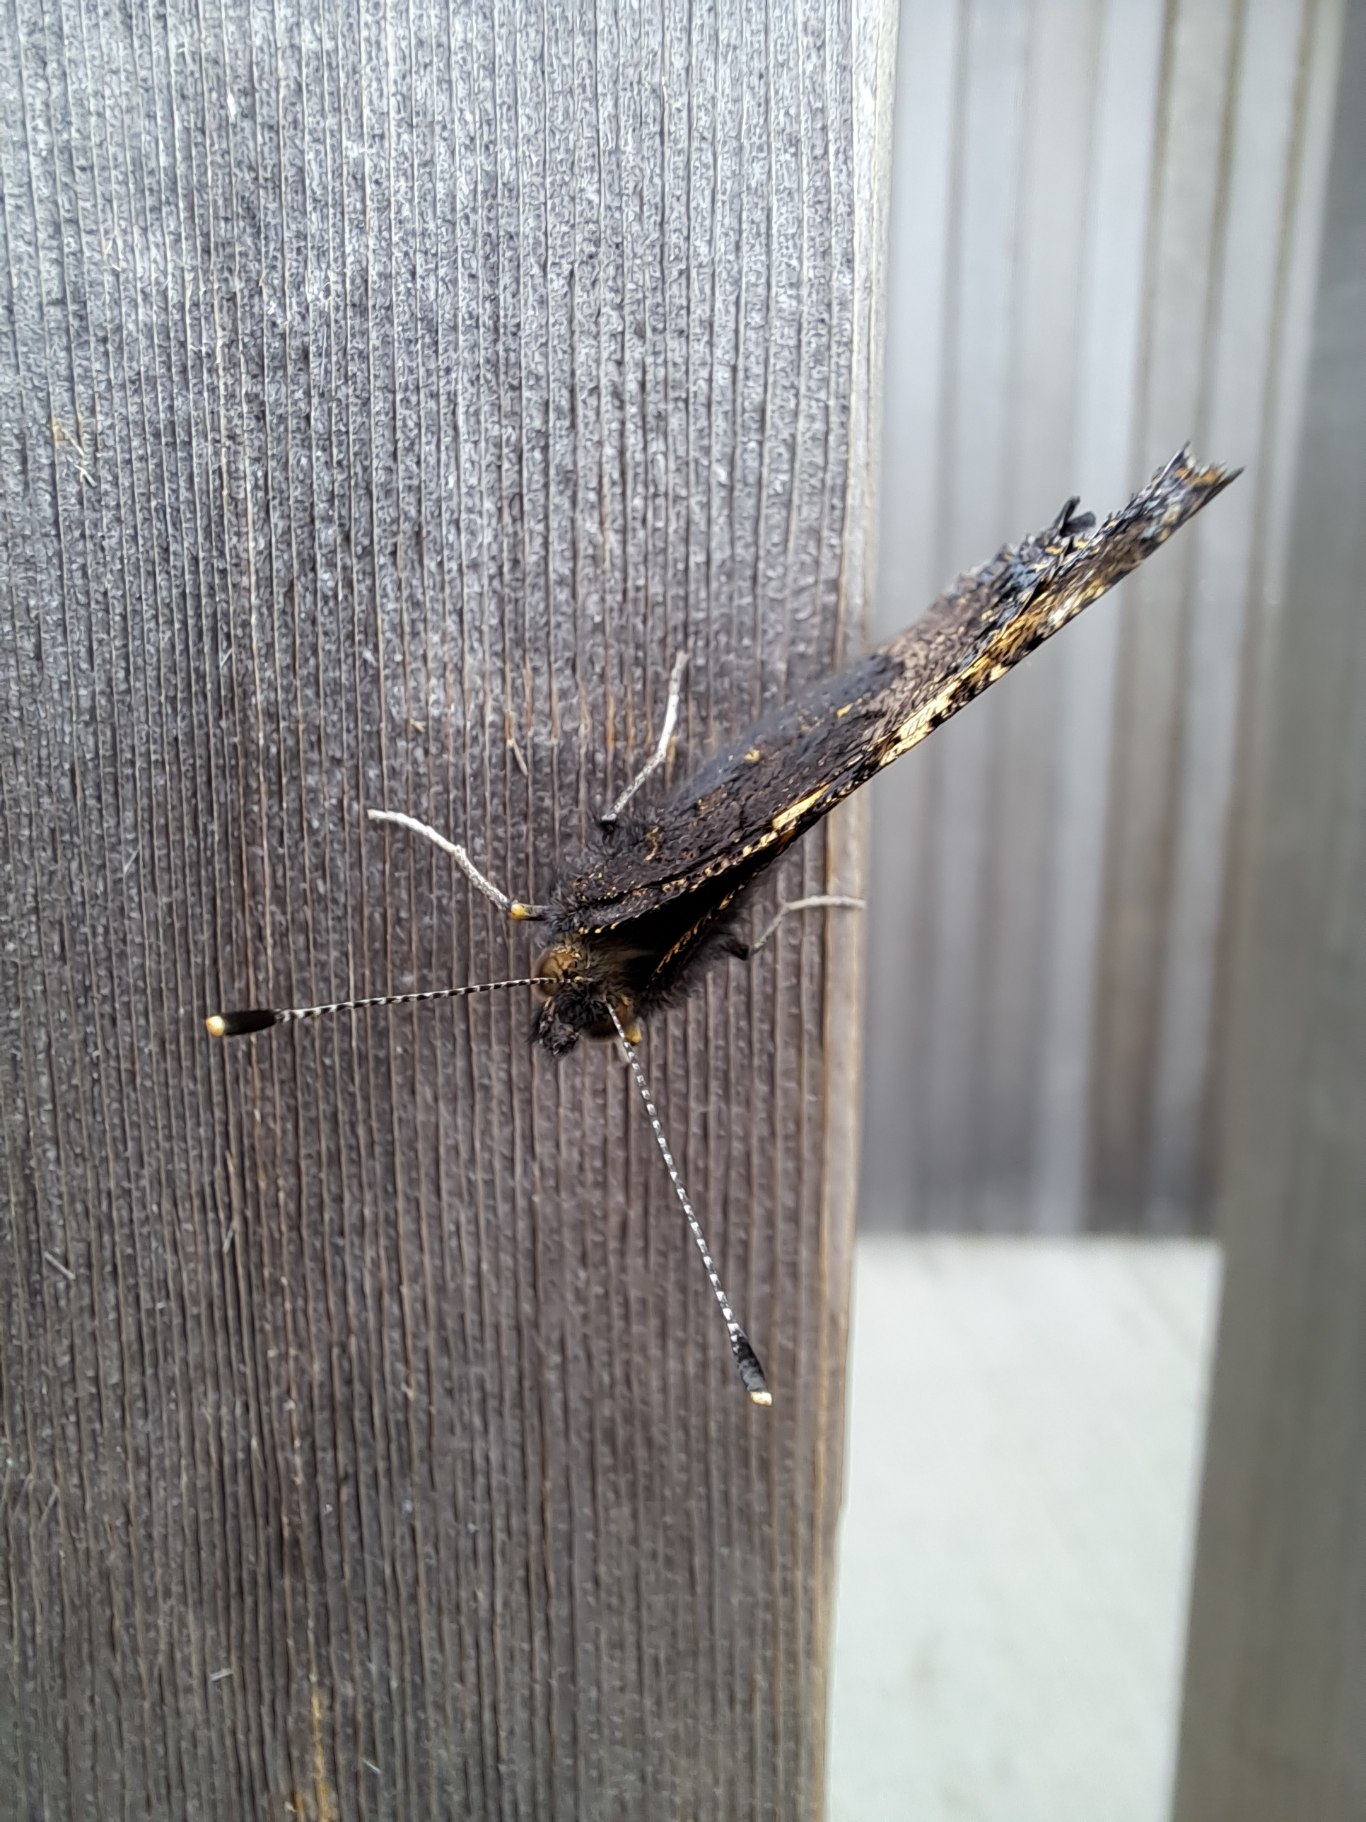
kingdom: Animalia
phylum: Arthropoda
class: Insecta
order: Lepidoptera
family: Nymphalidae
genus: Aglais
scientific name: Aglais urticae
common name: Nældens takvinge
